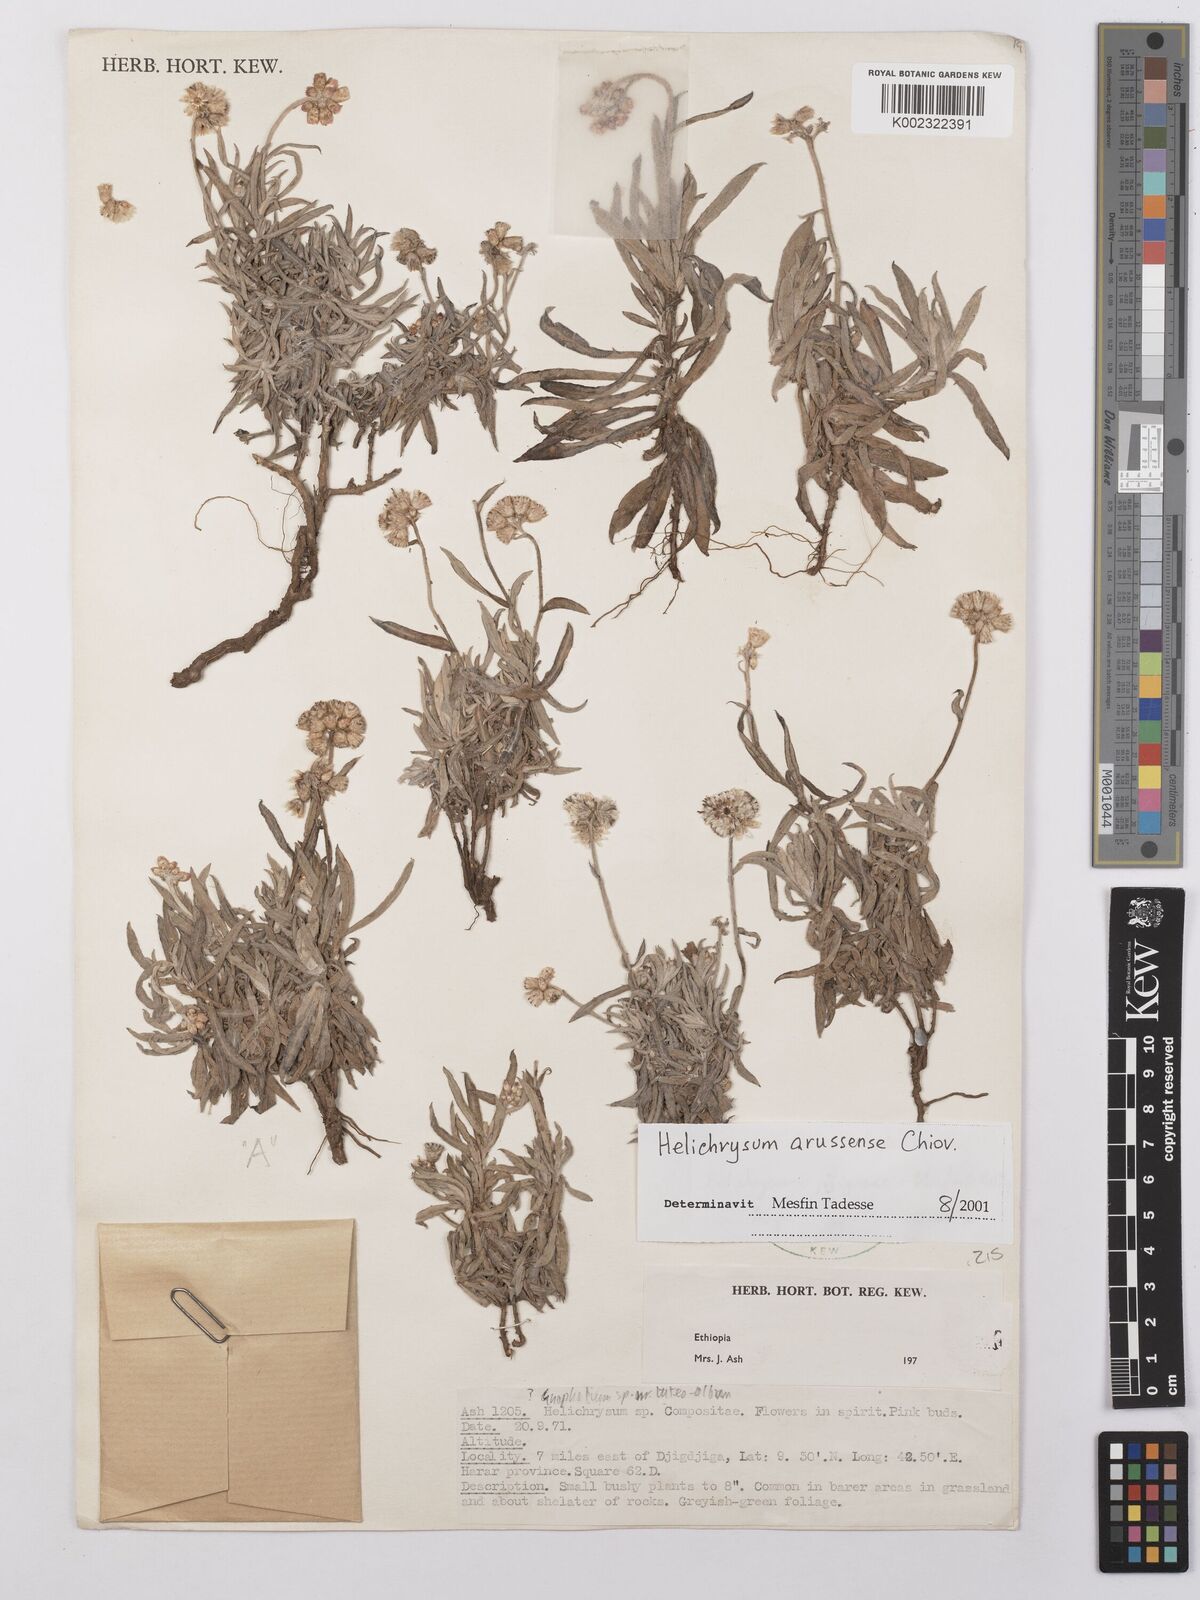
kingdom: Plantae
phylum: Tracheophyta
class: Magnoliopsida
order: Asterales
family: Asteraceae
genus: Helichrysum
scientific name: Helichrysum arussense
